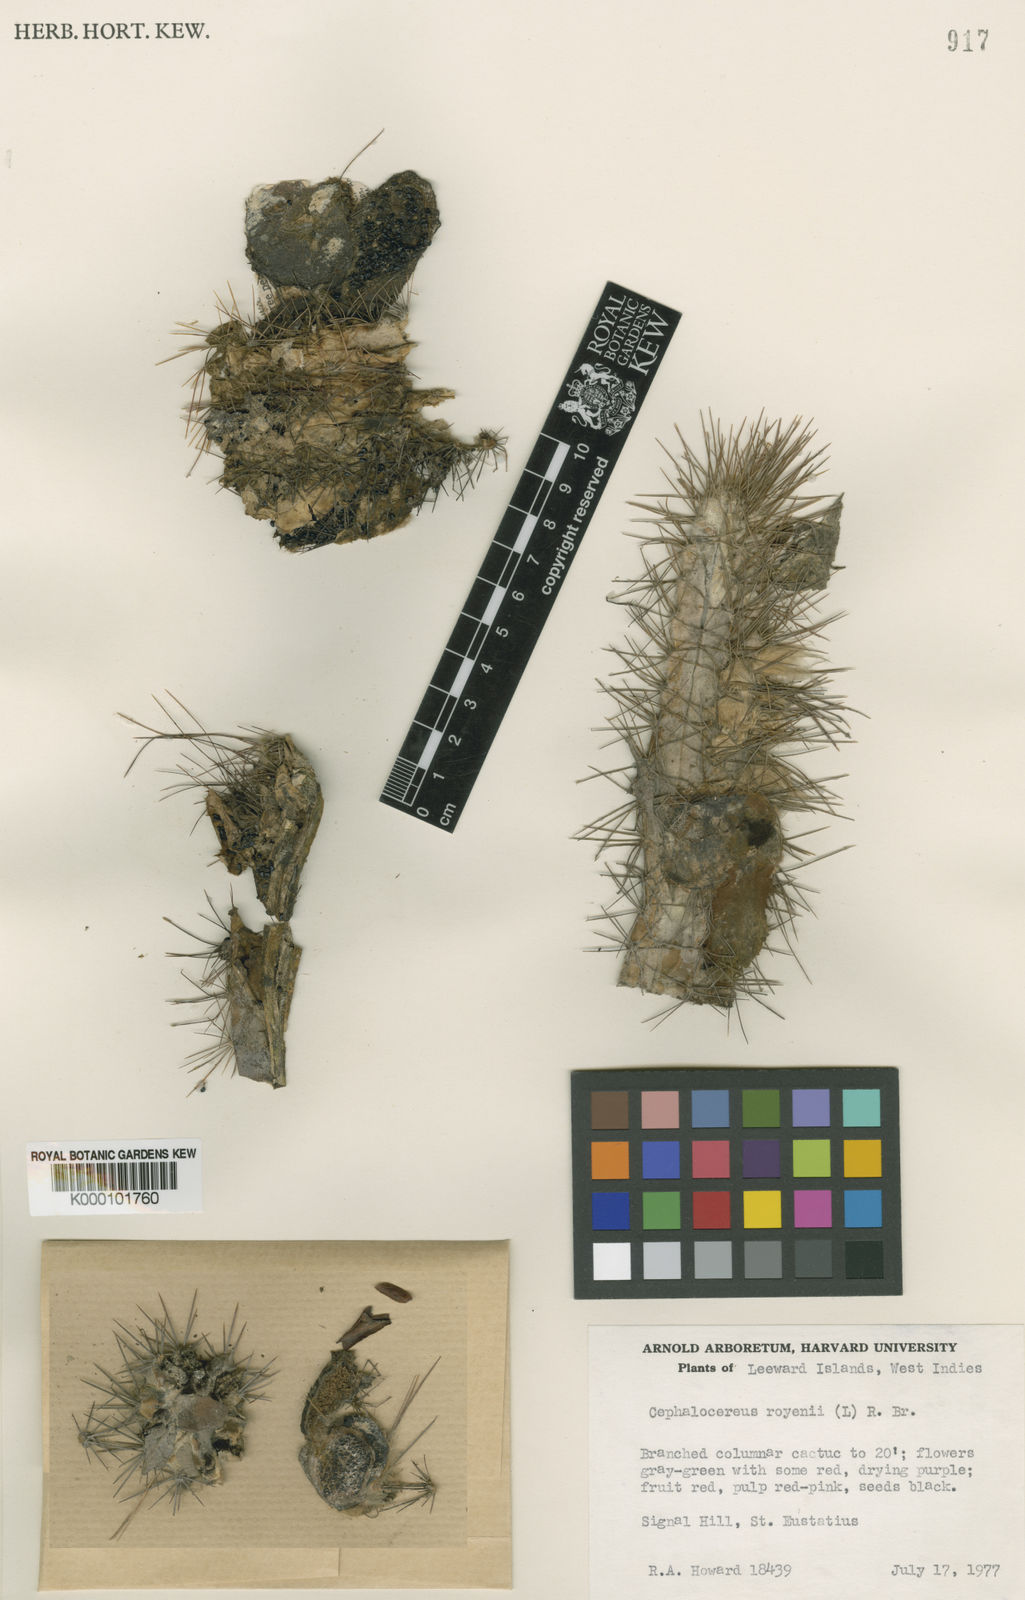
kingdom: Plantae
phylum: Tracheophyta
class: Magnoliopsida
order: Caryophyllales
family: Cactaceae
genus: Pilosocereus
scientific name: Pilosocereus polygonus
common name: Key tree cactus
